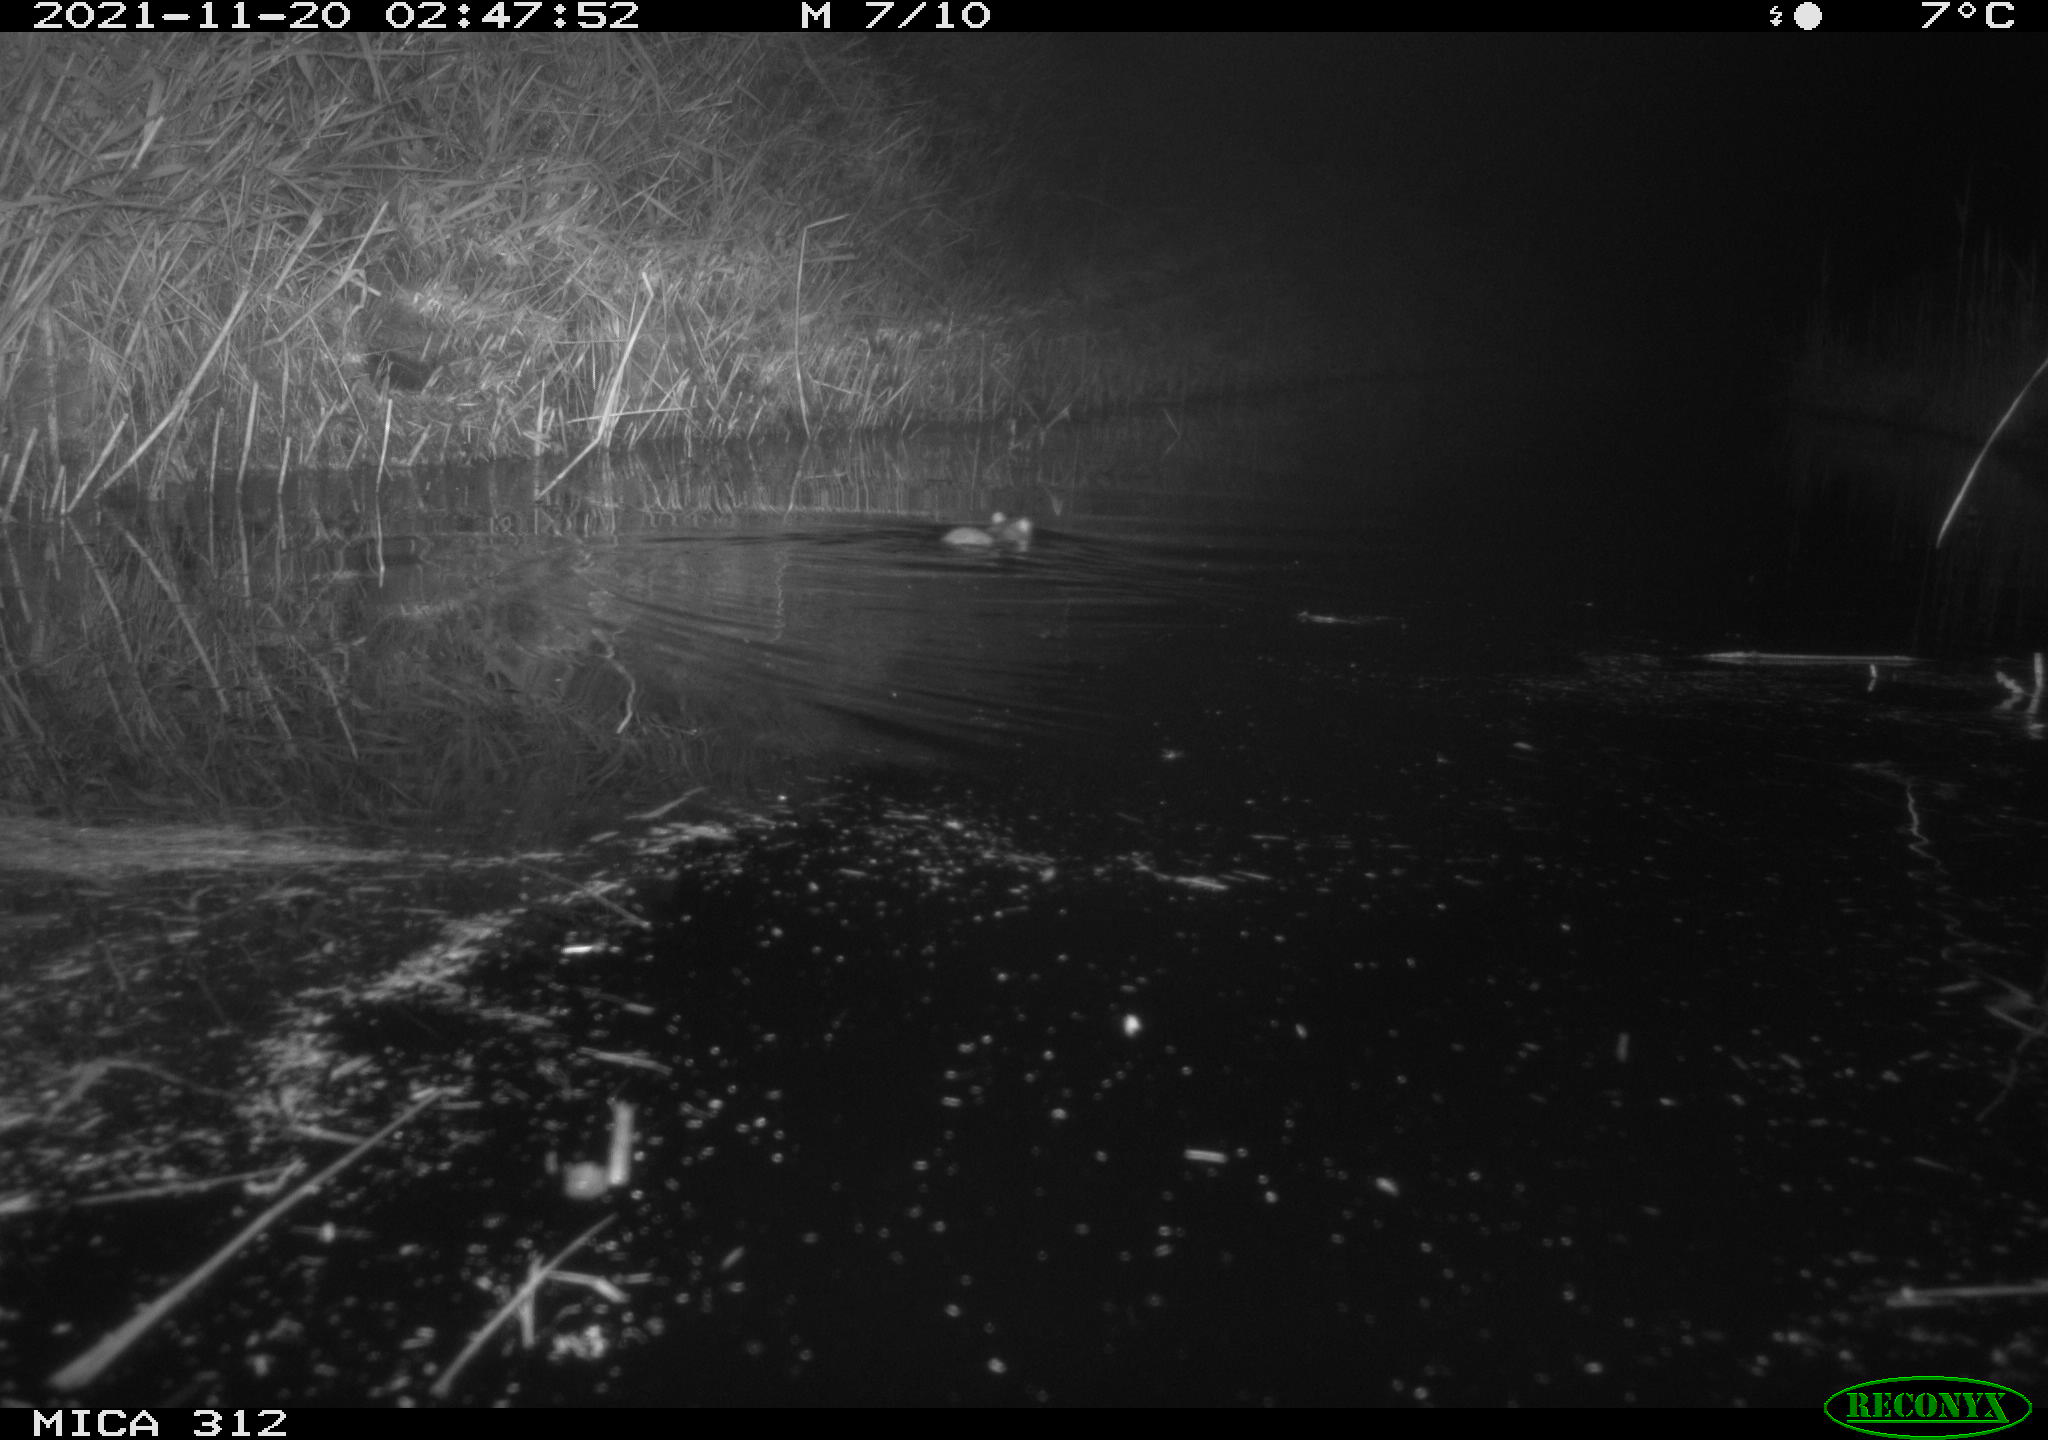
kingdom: Animalia
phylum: Chordata
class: Mammalia
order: Rodentia
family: Muridae
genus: Rattus
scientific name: Rattus norvegicus
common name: Brown rat
